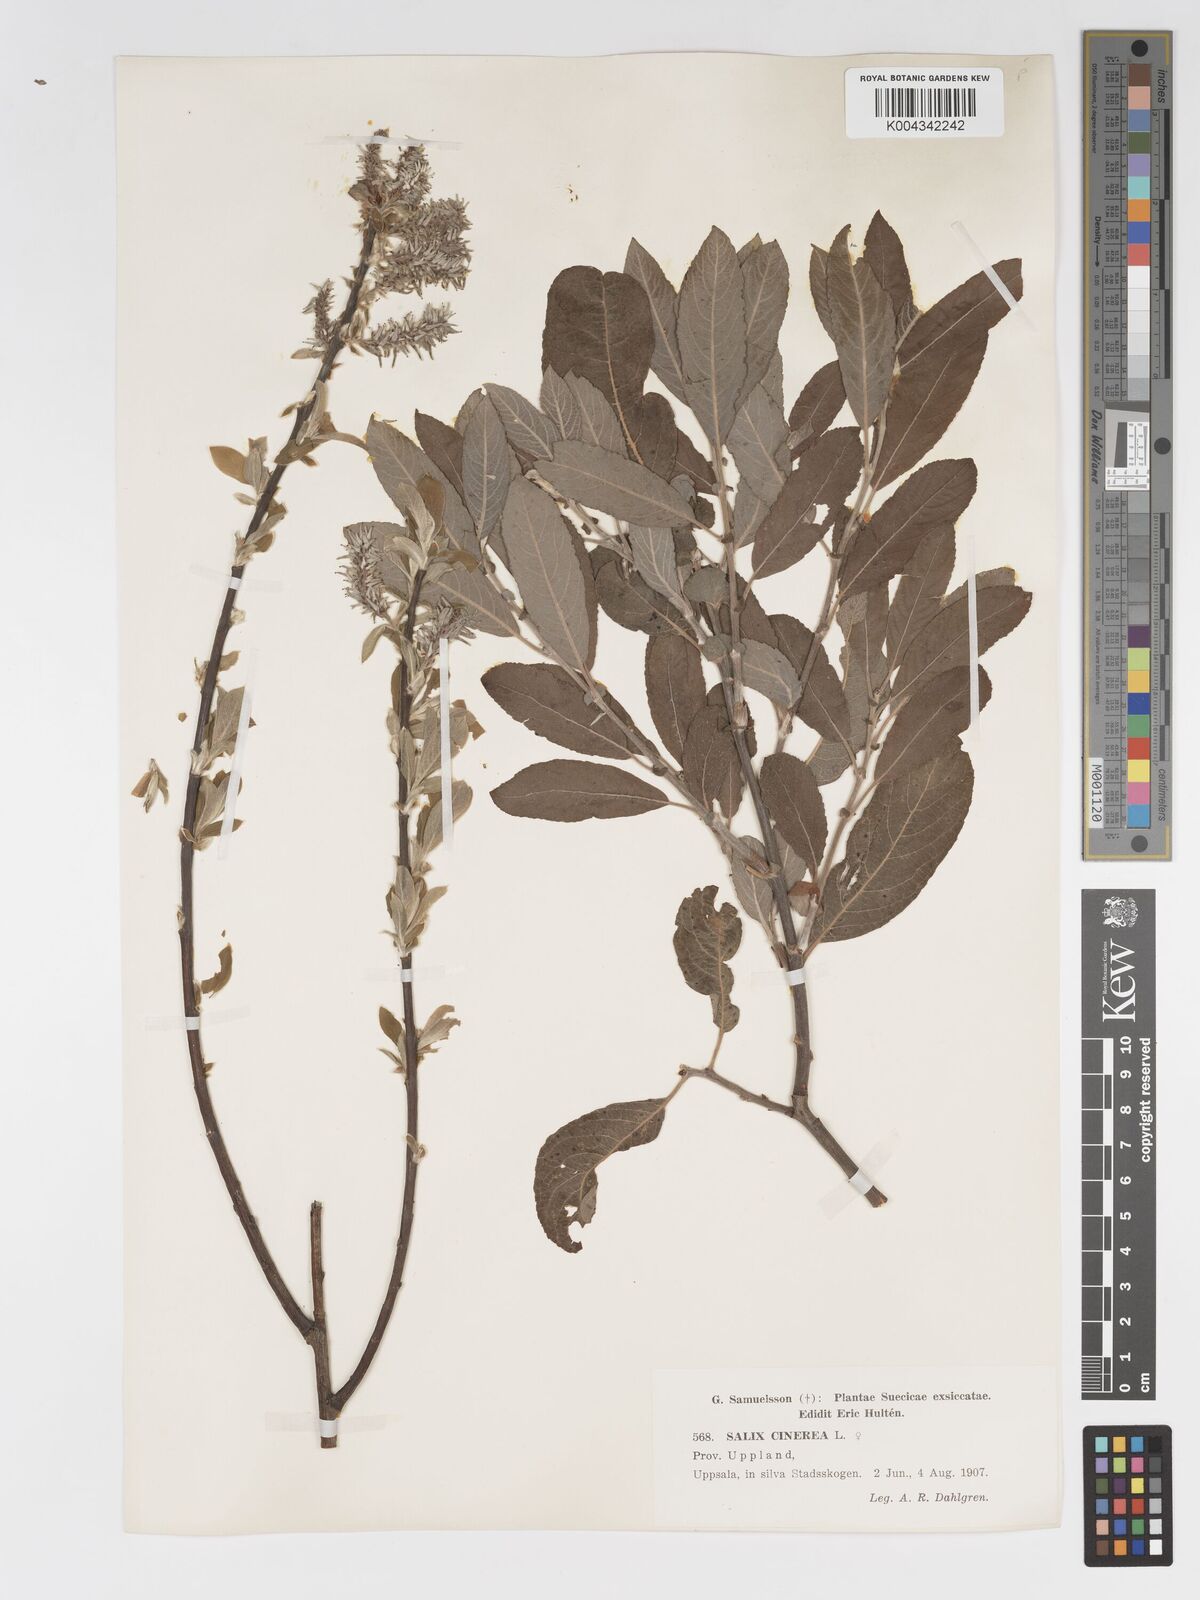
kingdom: Plantae
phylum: Tracheophyta
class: Magnoliopsida
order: Malpighiales
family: Salicaceae
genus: Salix
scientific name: Salix
